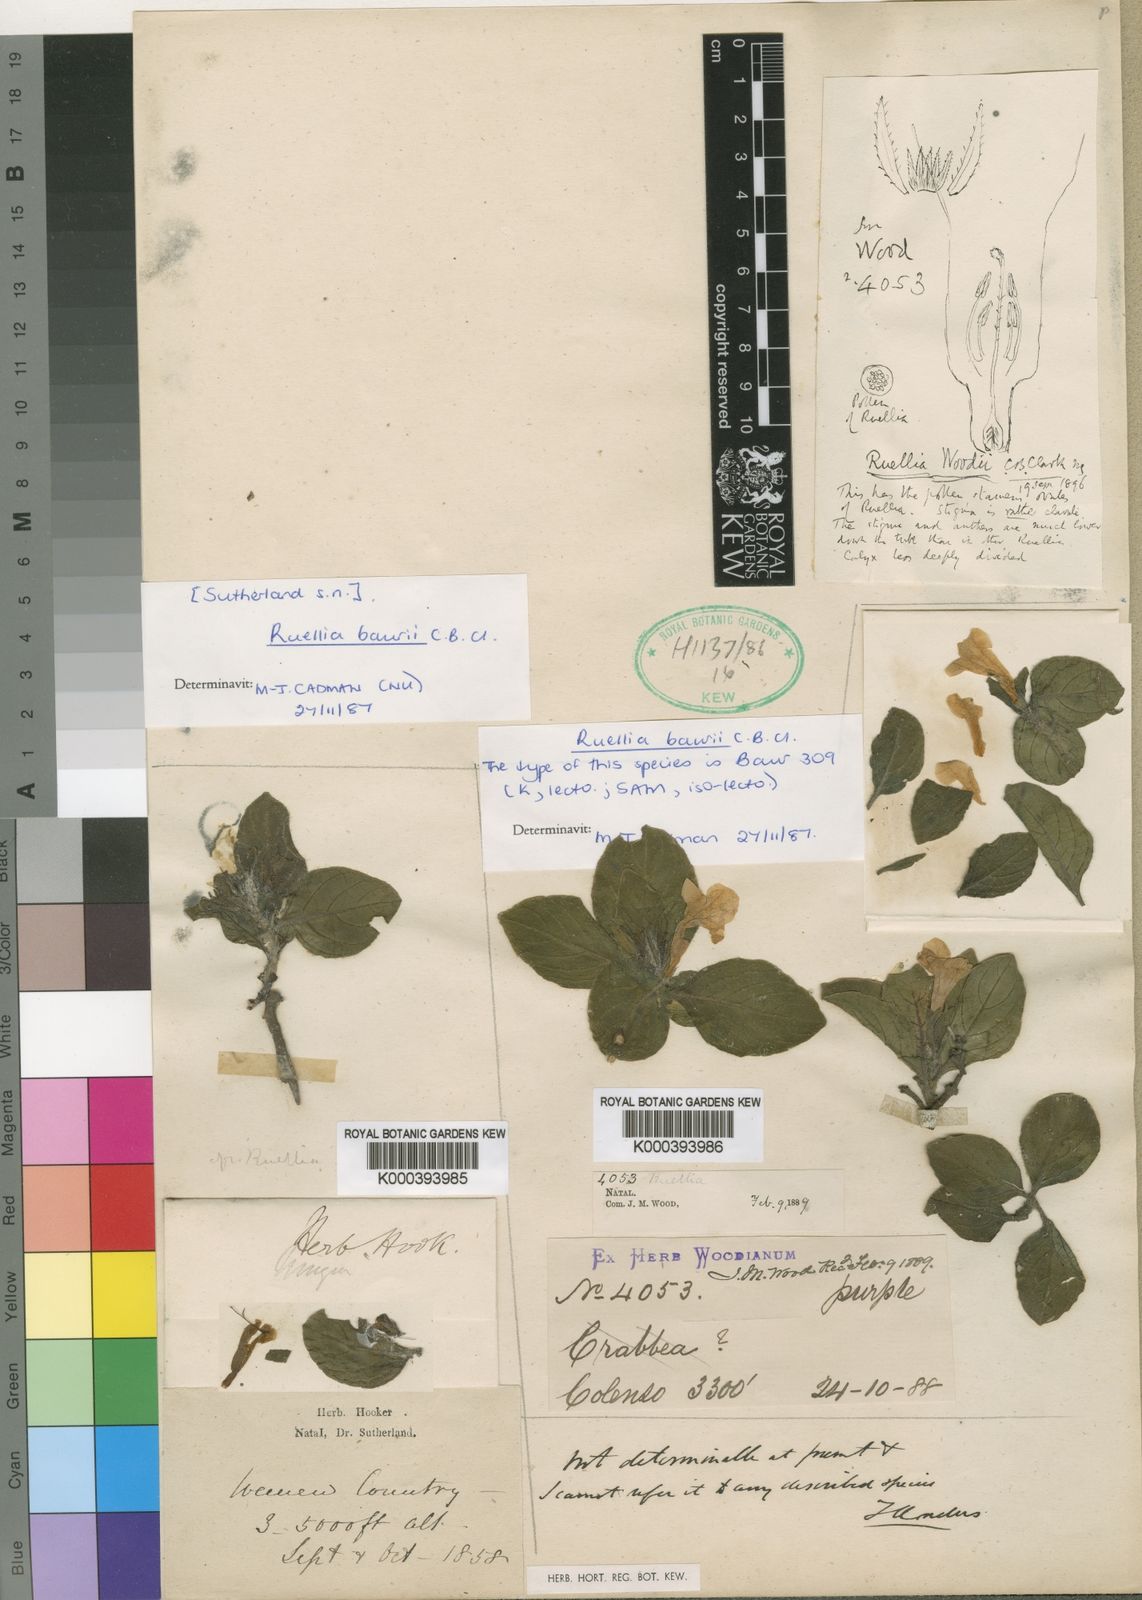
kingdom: Plantae
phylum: Tracheophyta
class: Magnoliopsida
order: Lamiales
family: Acanthaceae
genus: Ruellia
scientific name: Ruellia baurii
